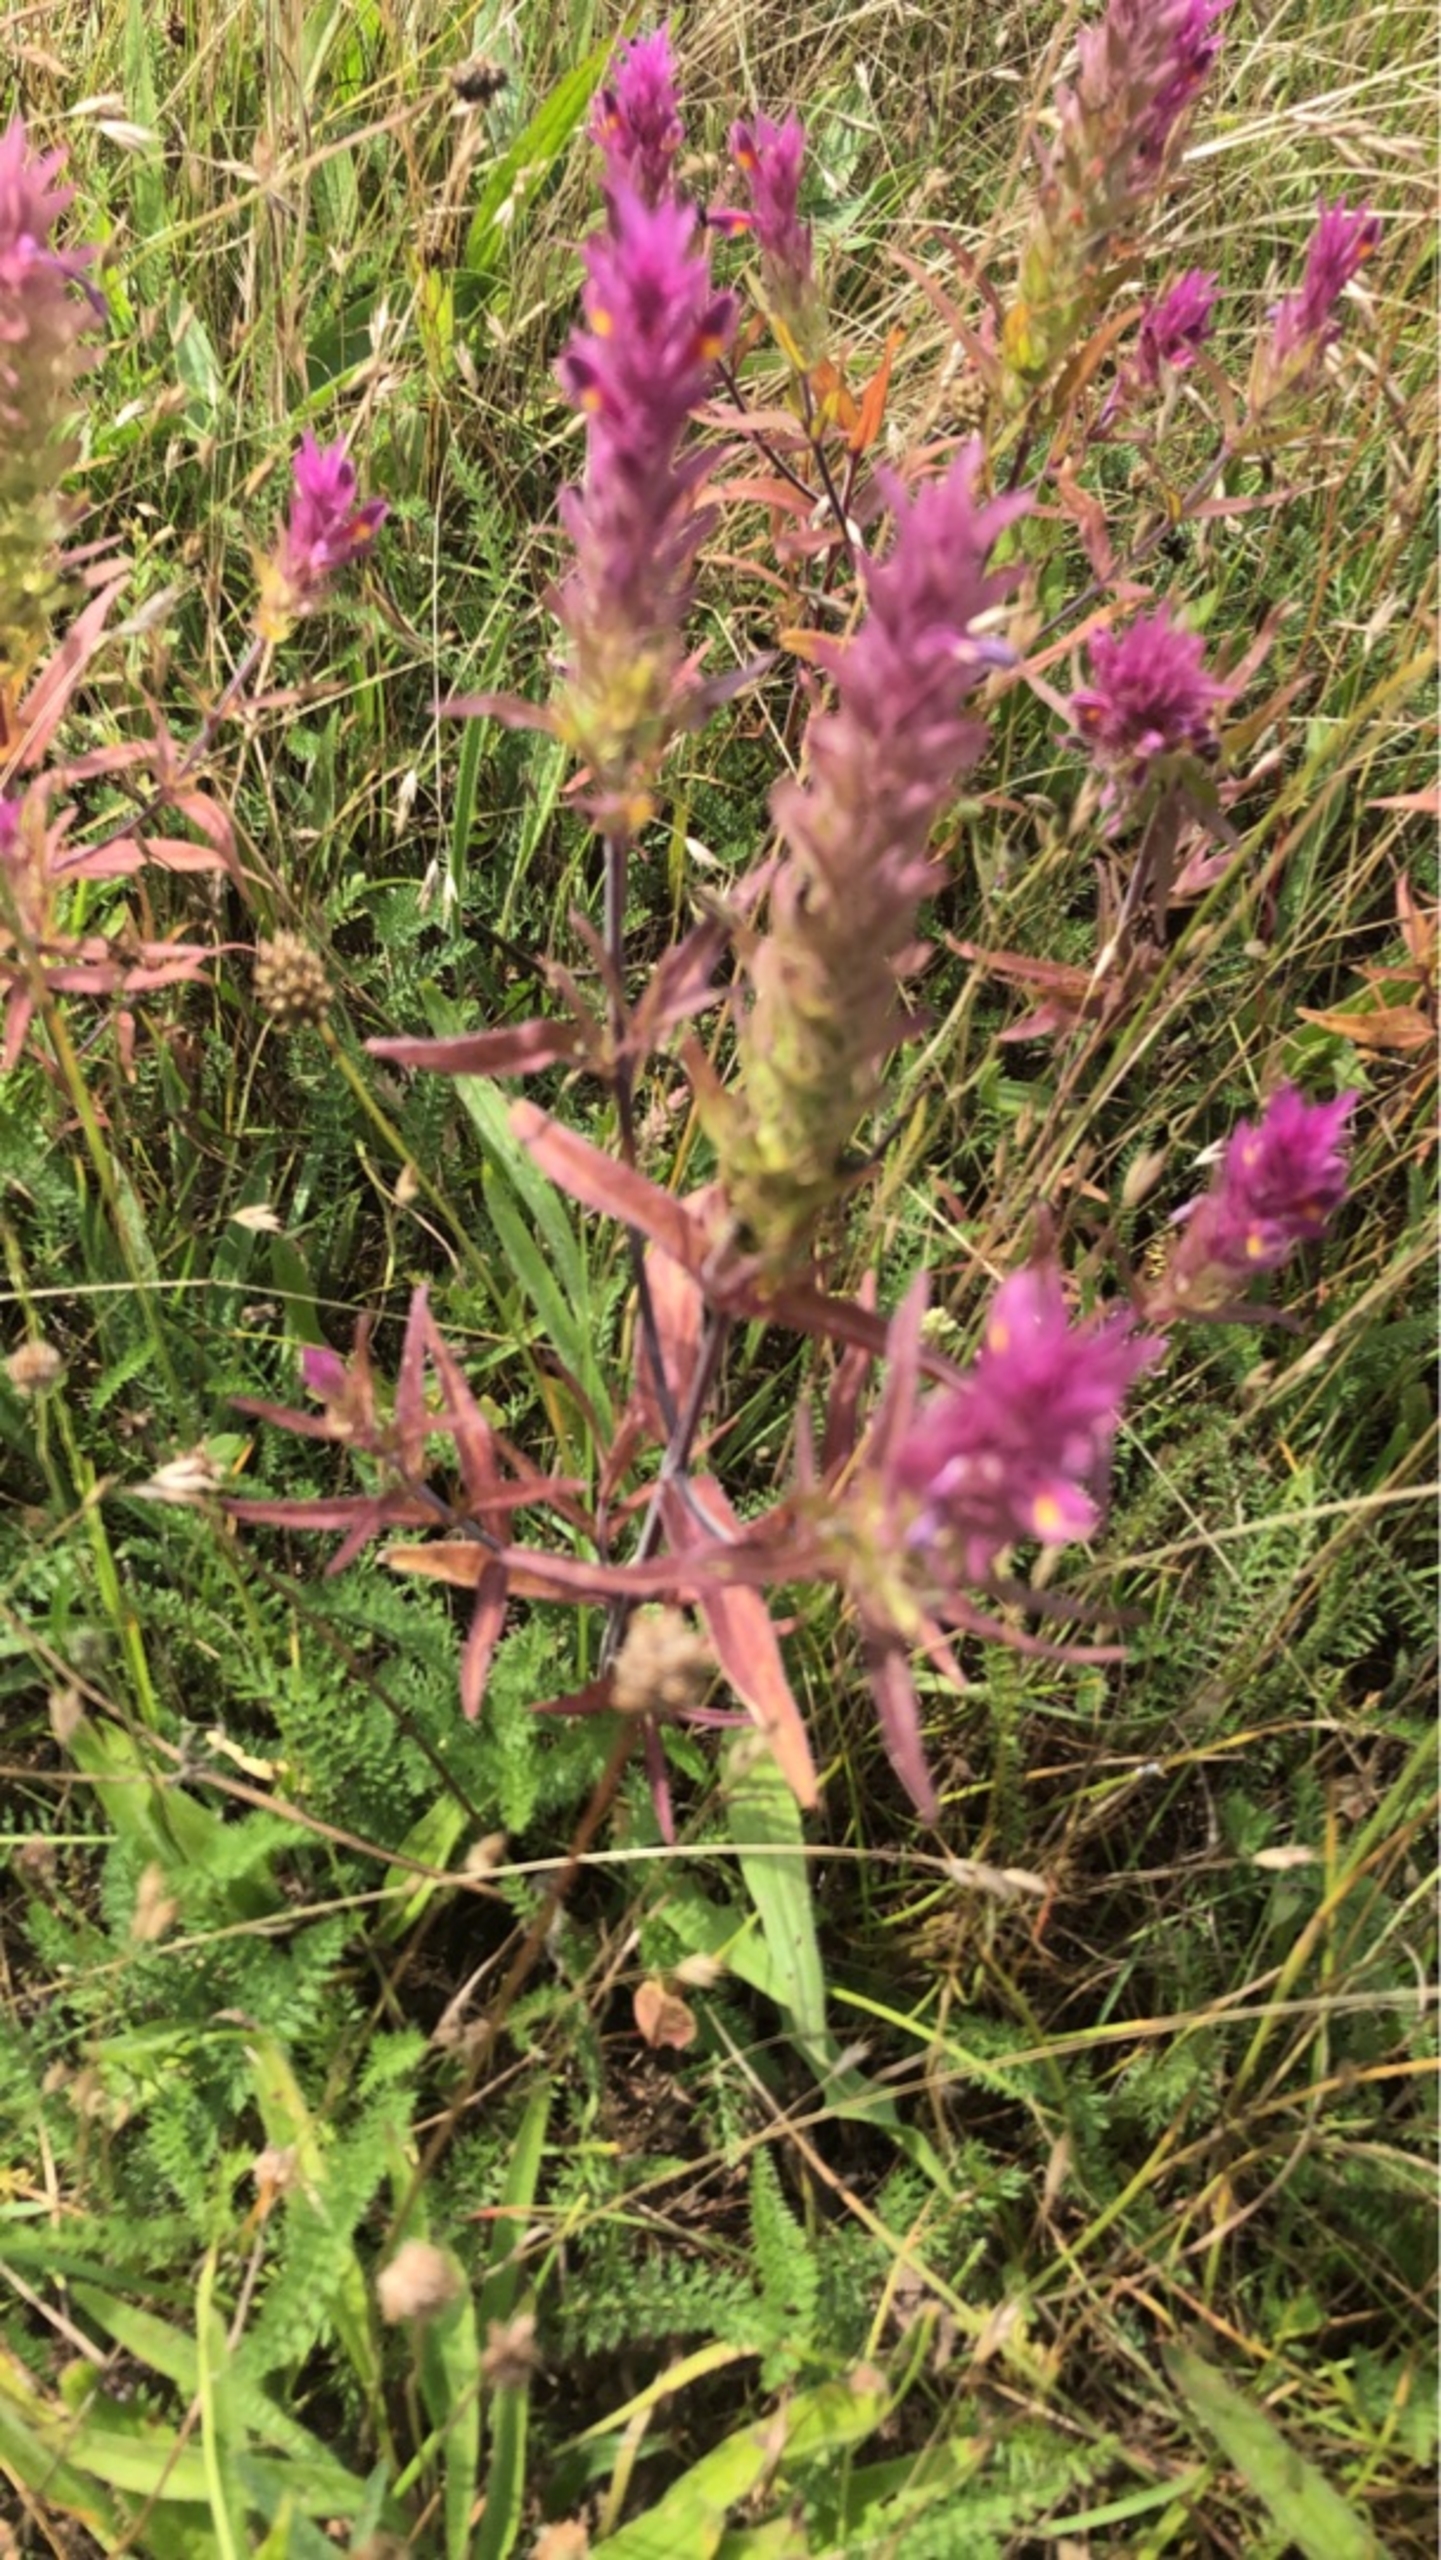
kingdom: Plantae
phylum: Tracheophyta
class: Magnoliopsida
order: Lamiales
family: Orobanchaceae
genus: Melampyrum
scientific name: Melampyrum arvense
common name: Ager-kohvede
